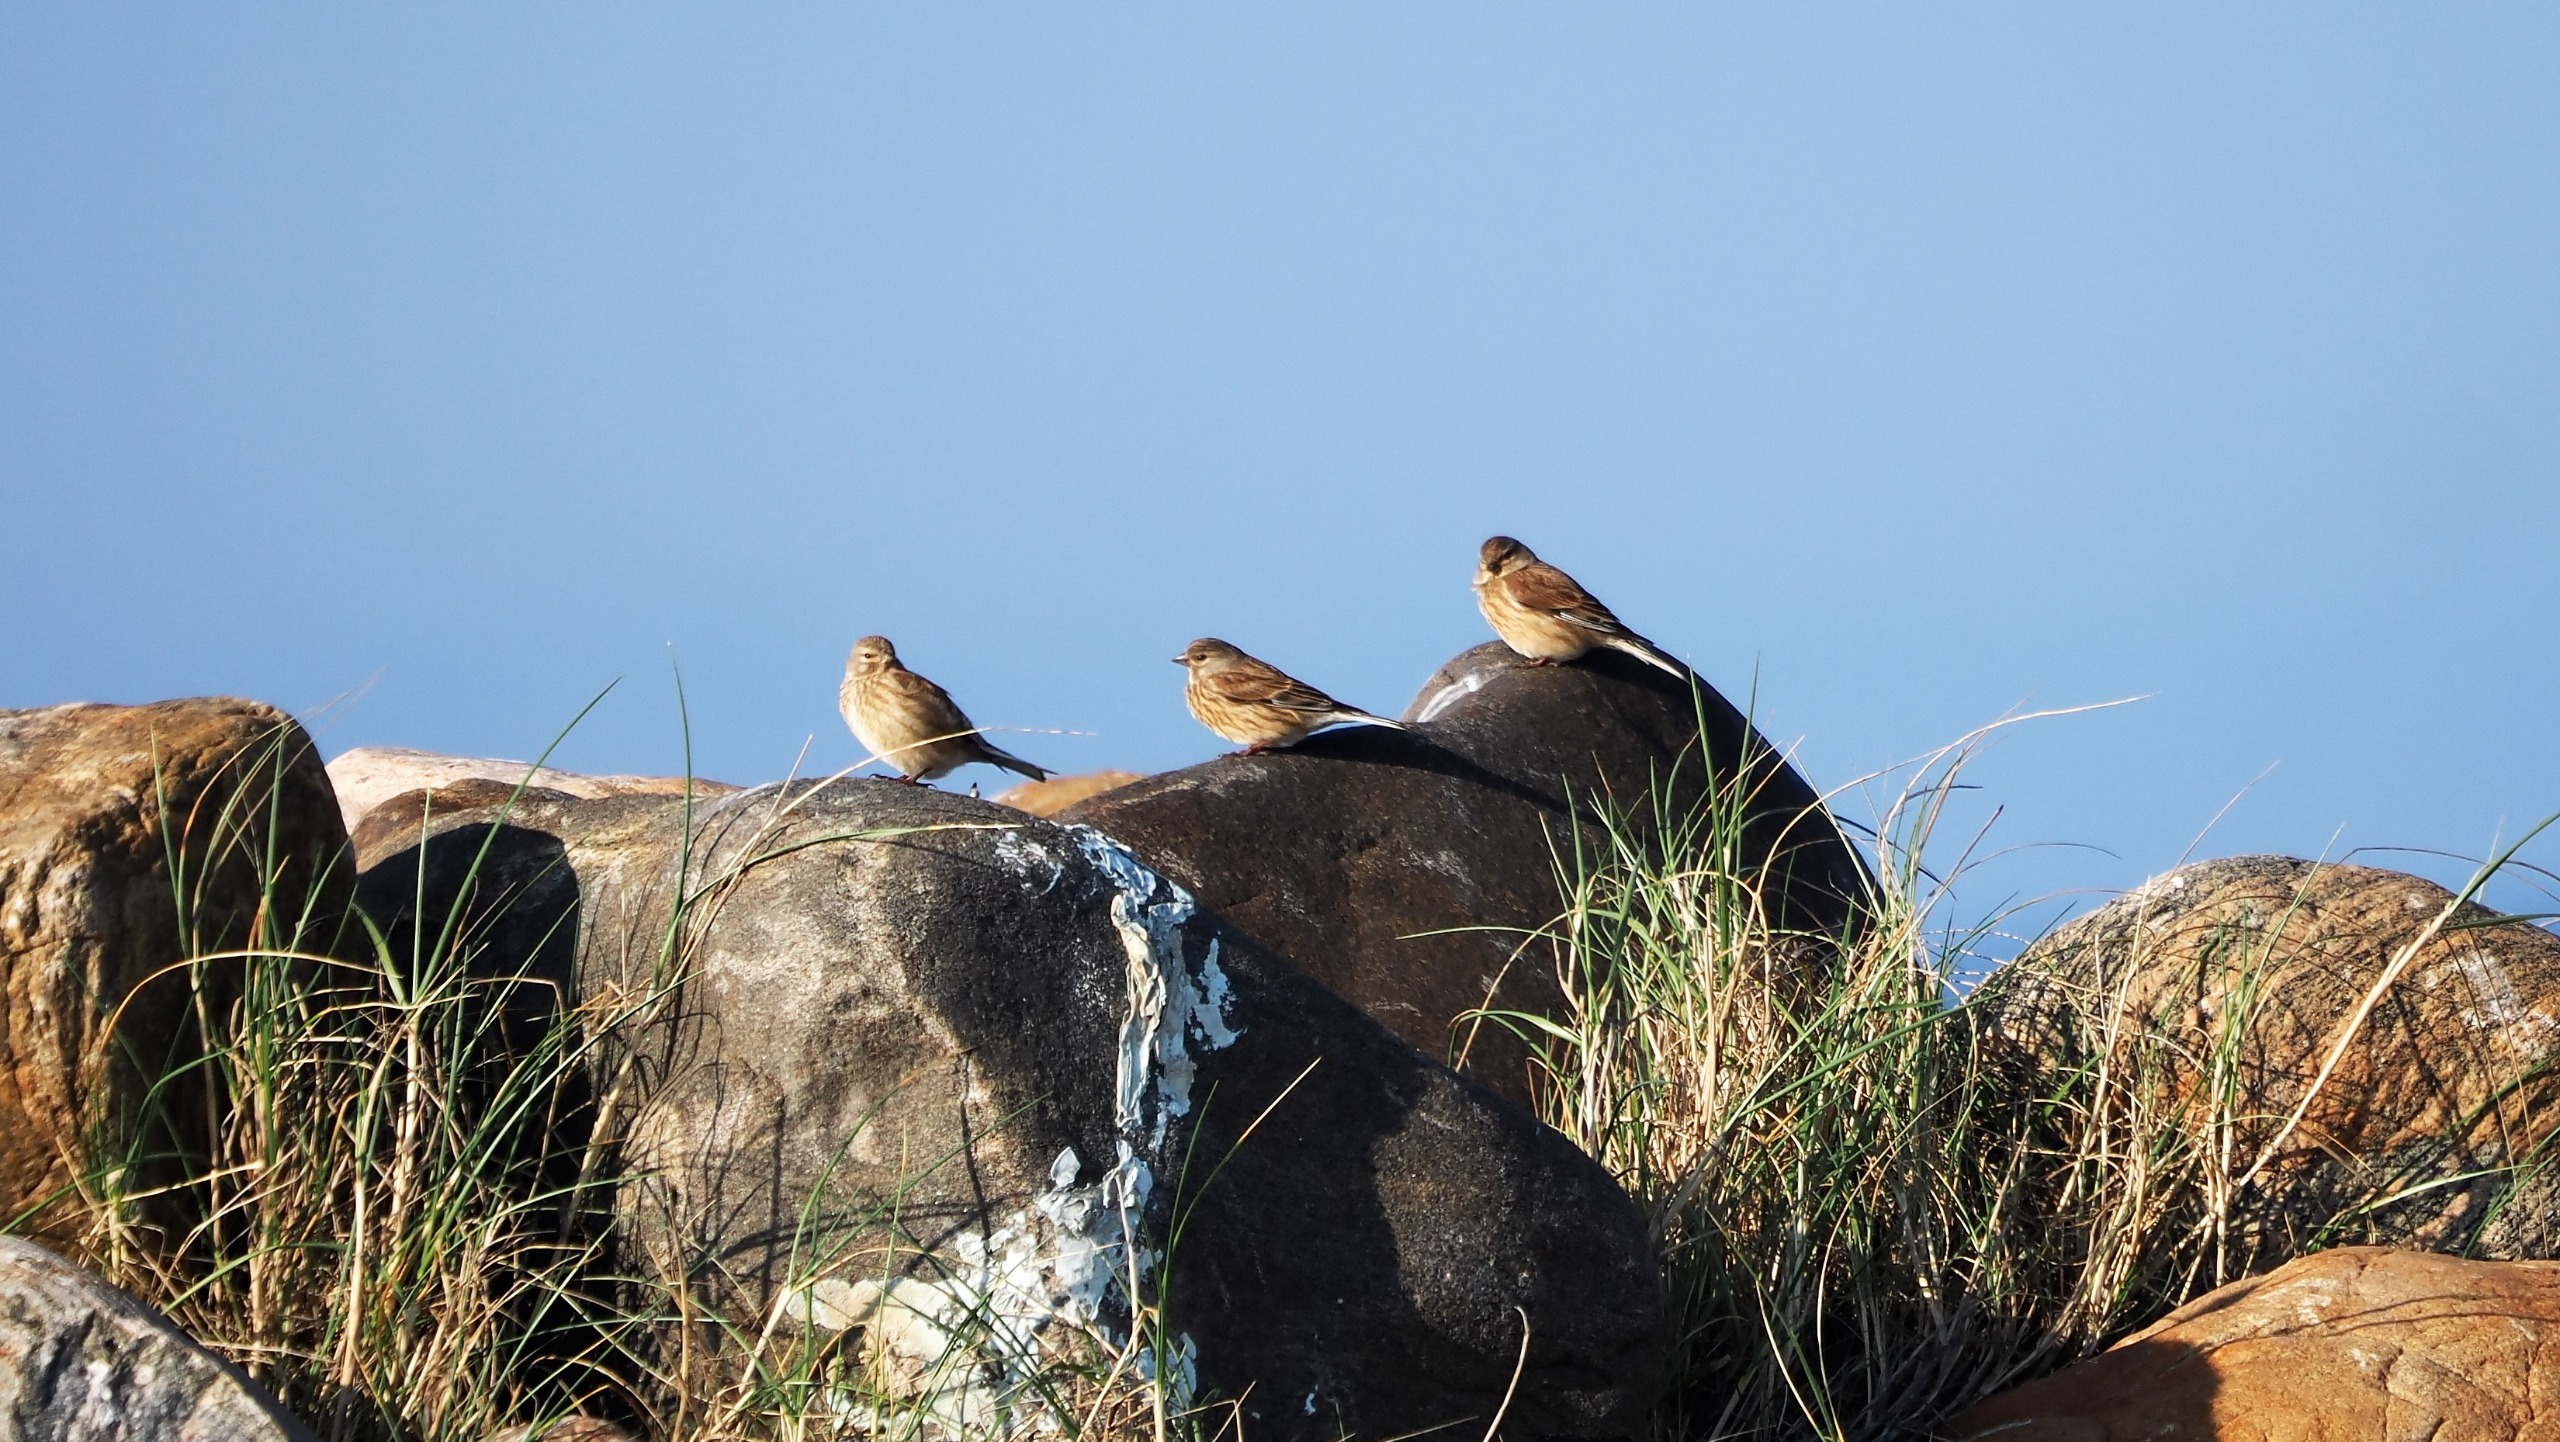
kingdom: Animalia
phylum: Chordata
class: Aves
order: Passeriformes
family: Fringillidae
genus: Linaria
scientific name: Linaria cannabina
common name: Tornirisk
